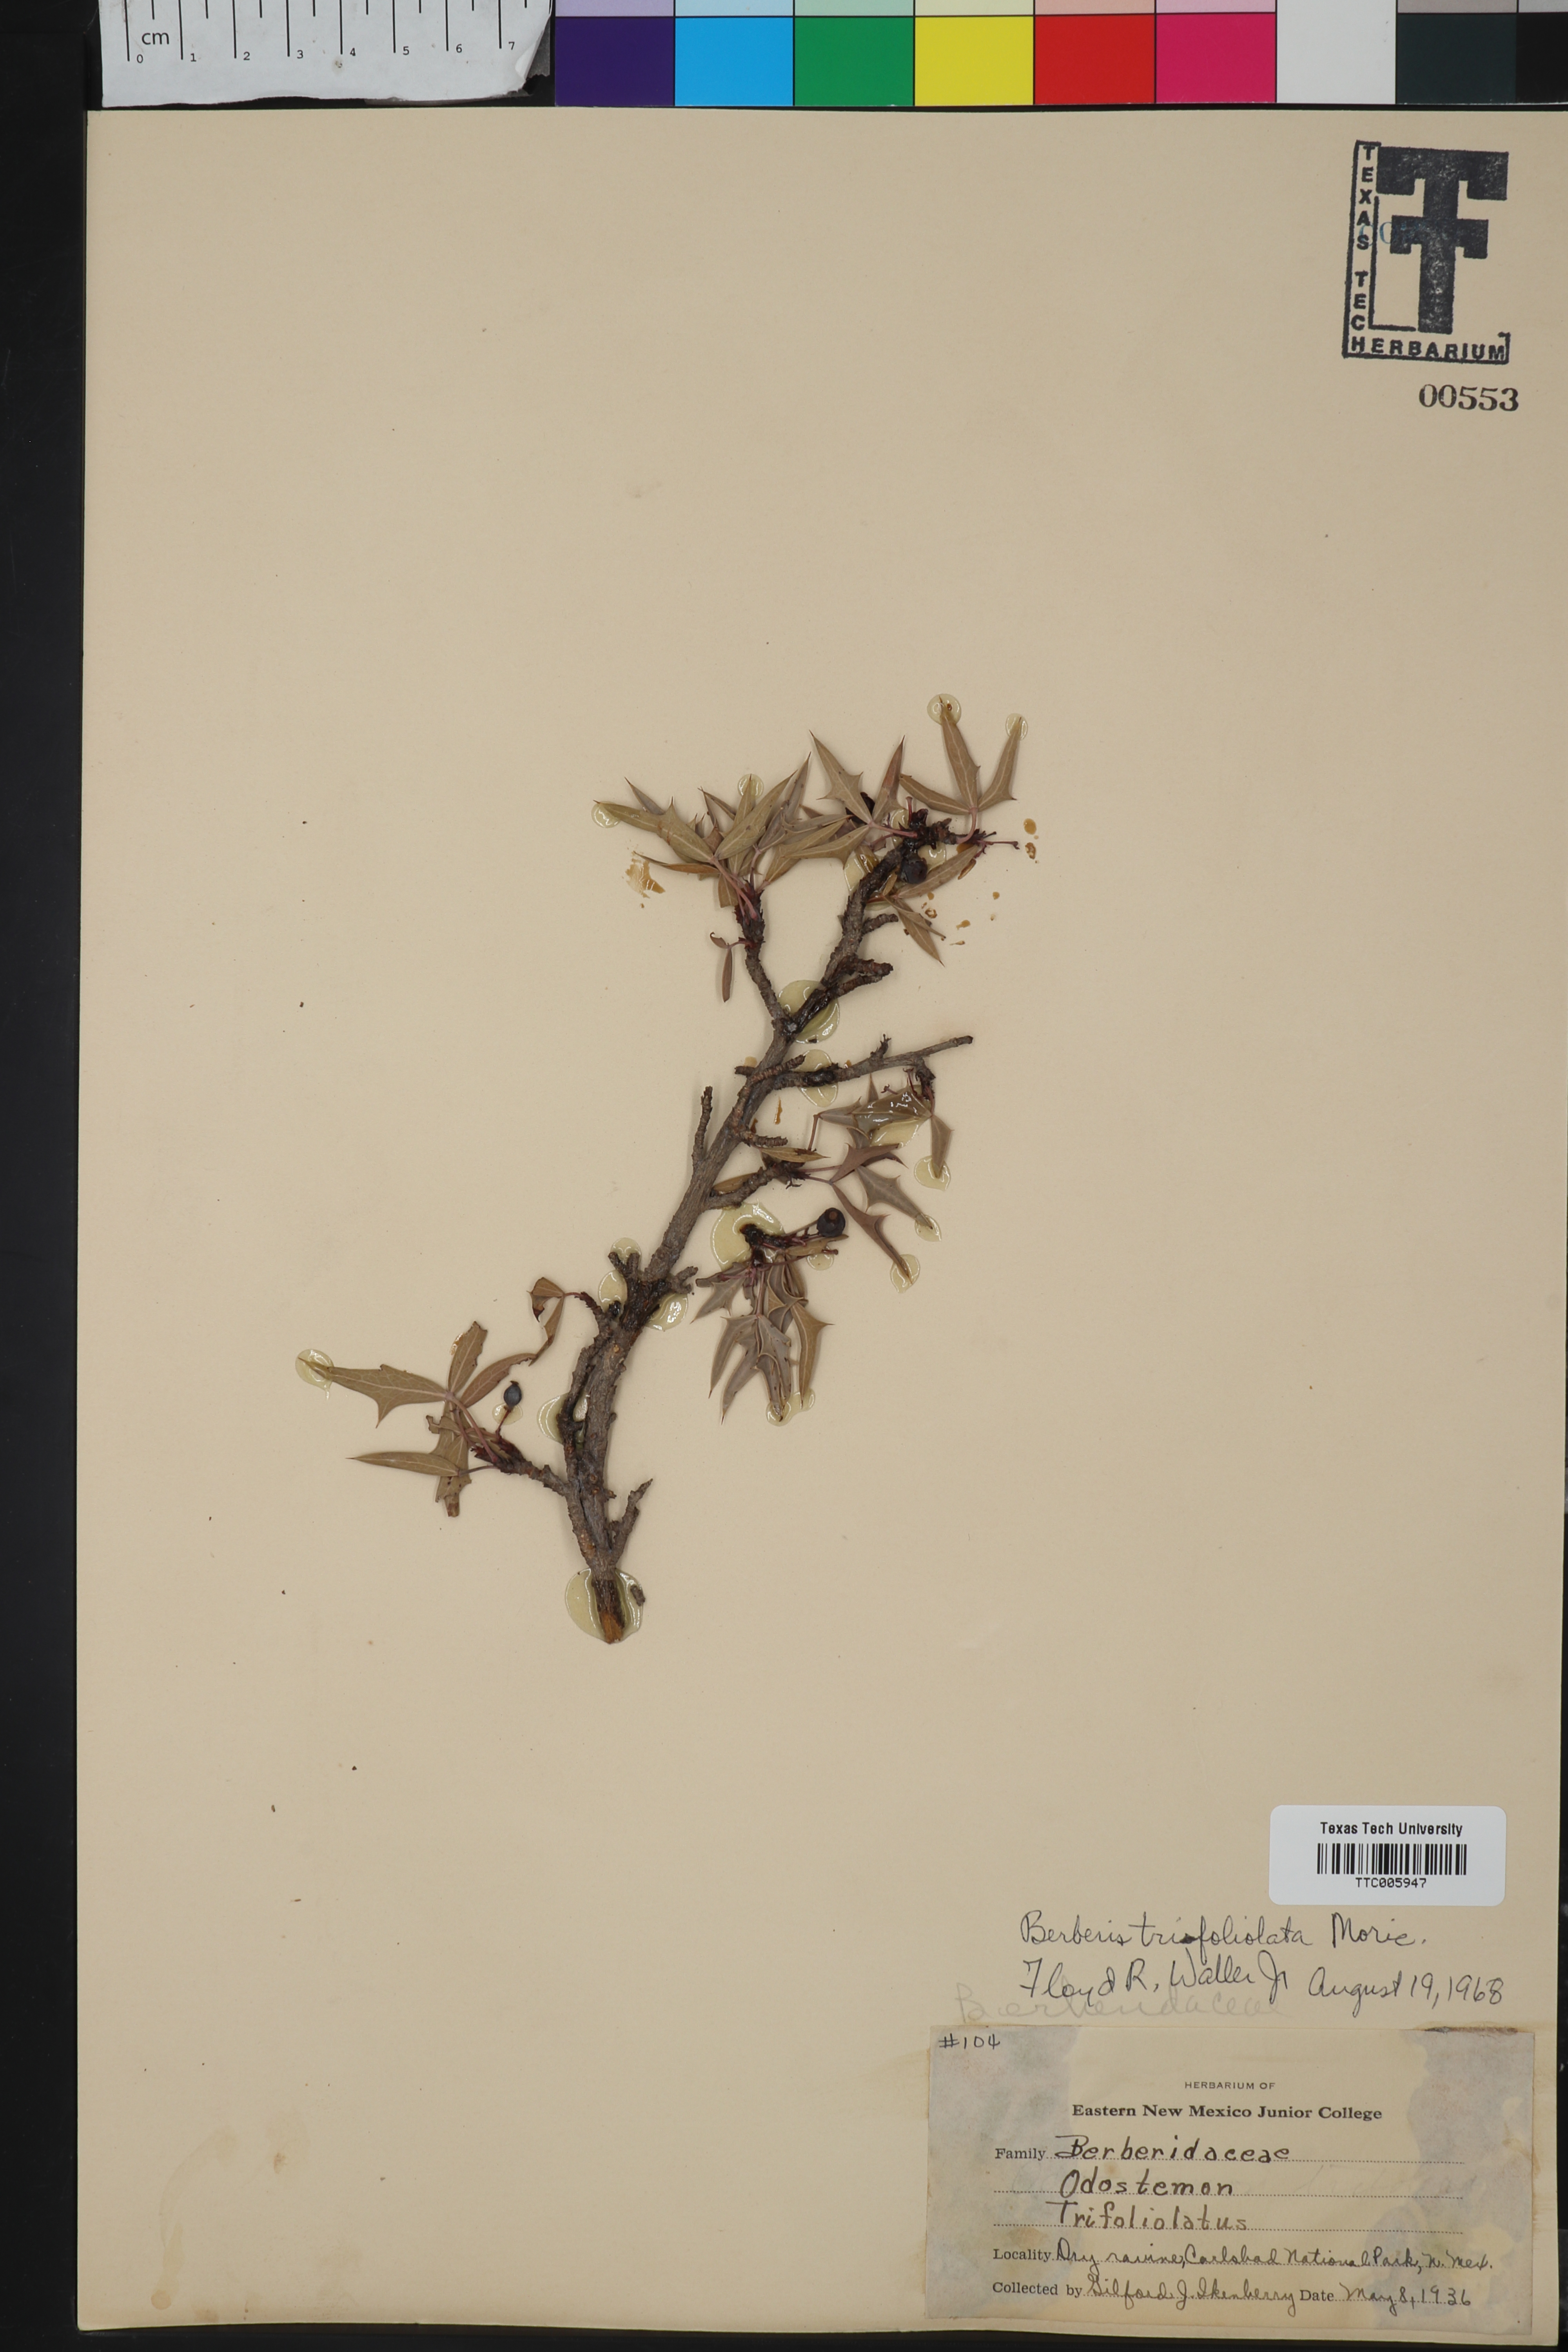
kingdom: Plantae
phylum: Tracheophyta
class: Magnoliopsida
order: Ranunculales
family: Berberidaceae
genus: Alloberberis
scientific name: Alloberberis trifoliolata
